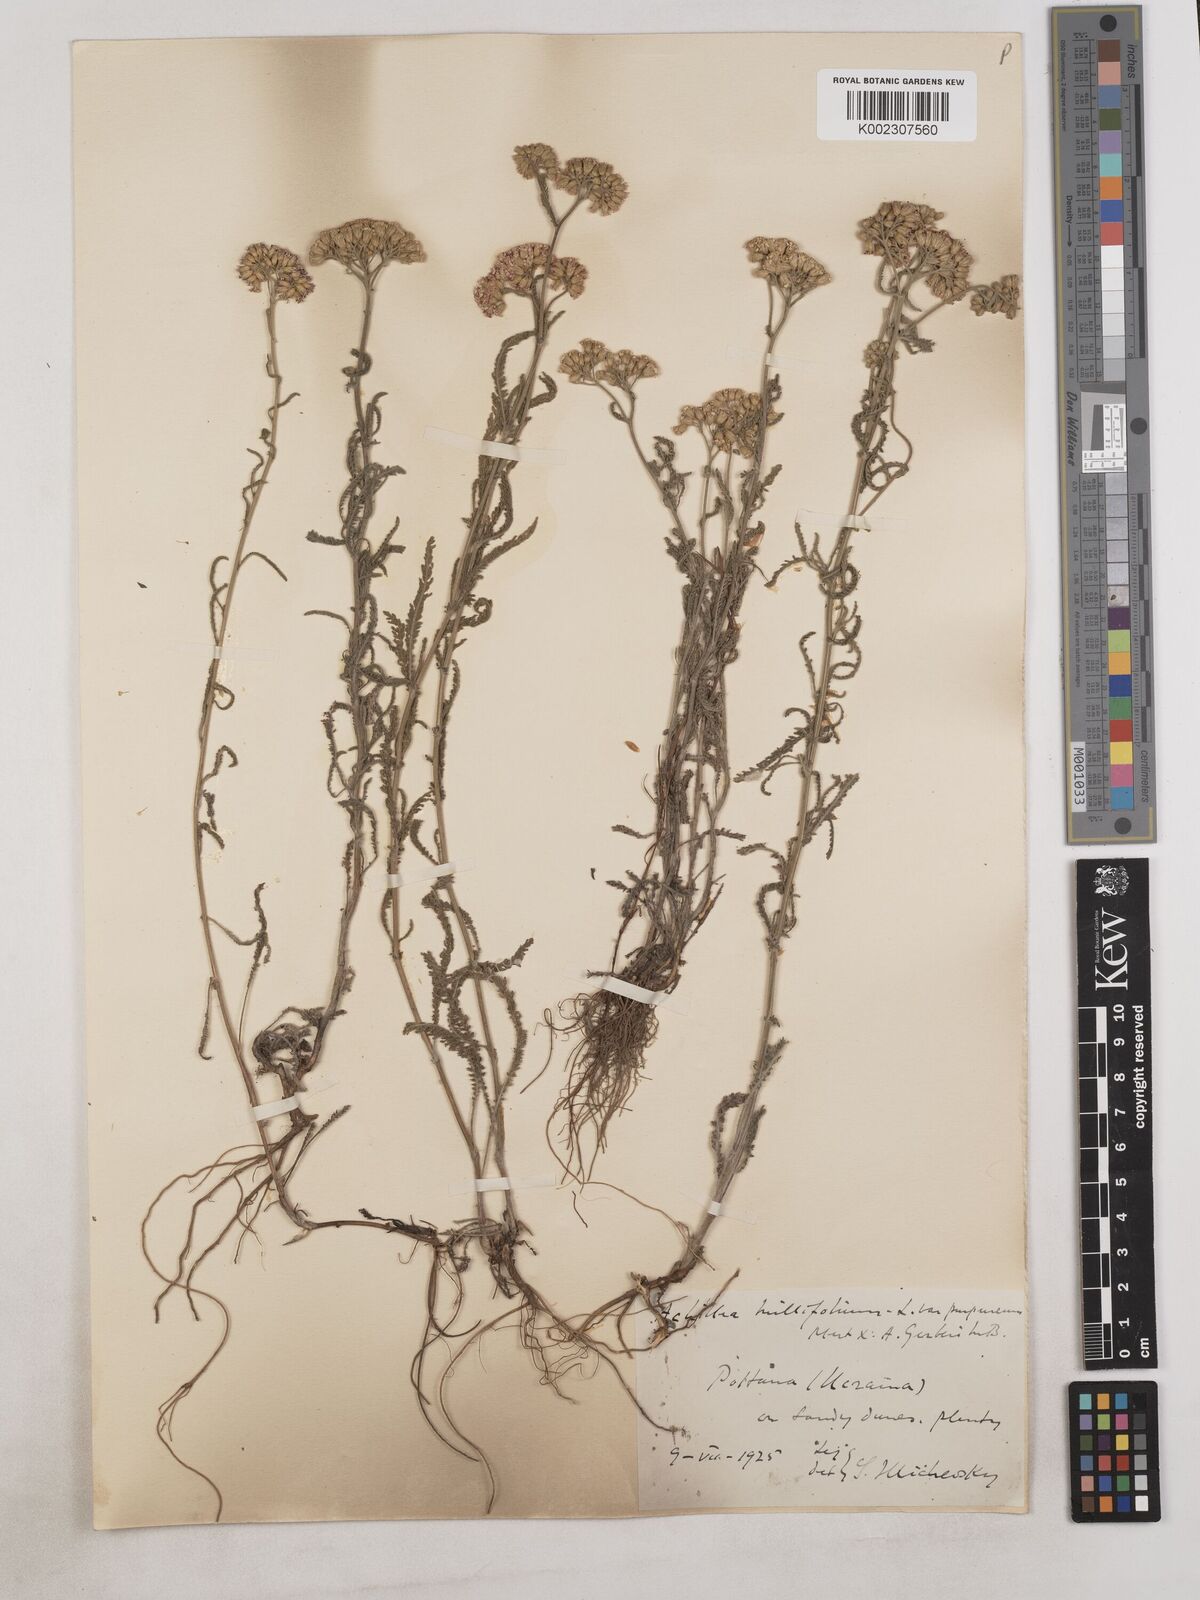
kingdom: Plantae
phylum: Tracheophyta
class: Magnoliopsida
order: Asterales
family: Asteraceae
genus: Achillea
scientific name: Achillea millefolium
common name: Yarrow
